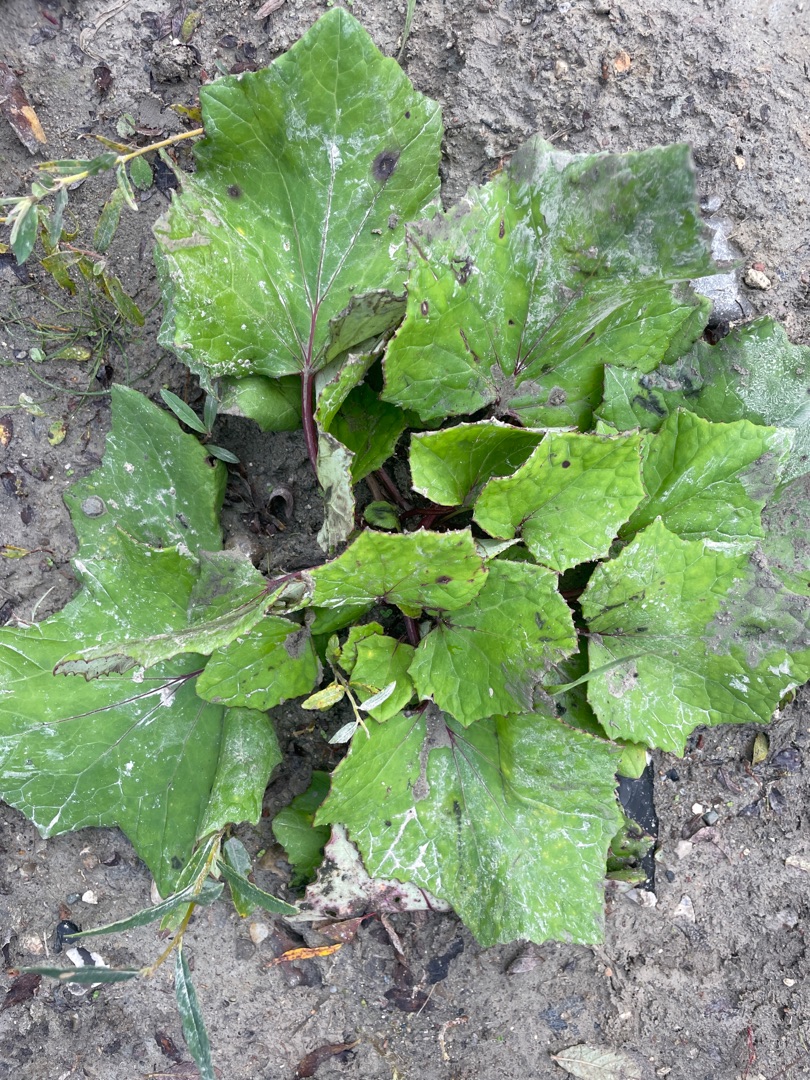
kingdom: Plantae
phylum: Tracheophyta
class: Magnoliopsida
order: Asterales
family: Asteraceae
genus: Tussilago
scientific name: Tussilago farfara
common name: Følfod
